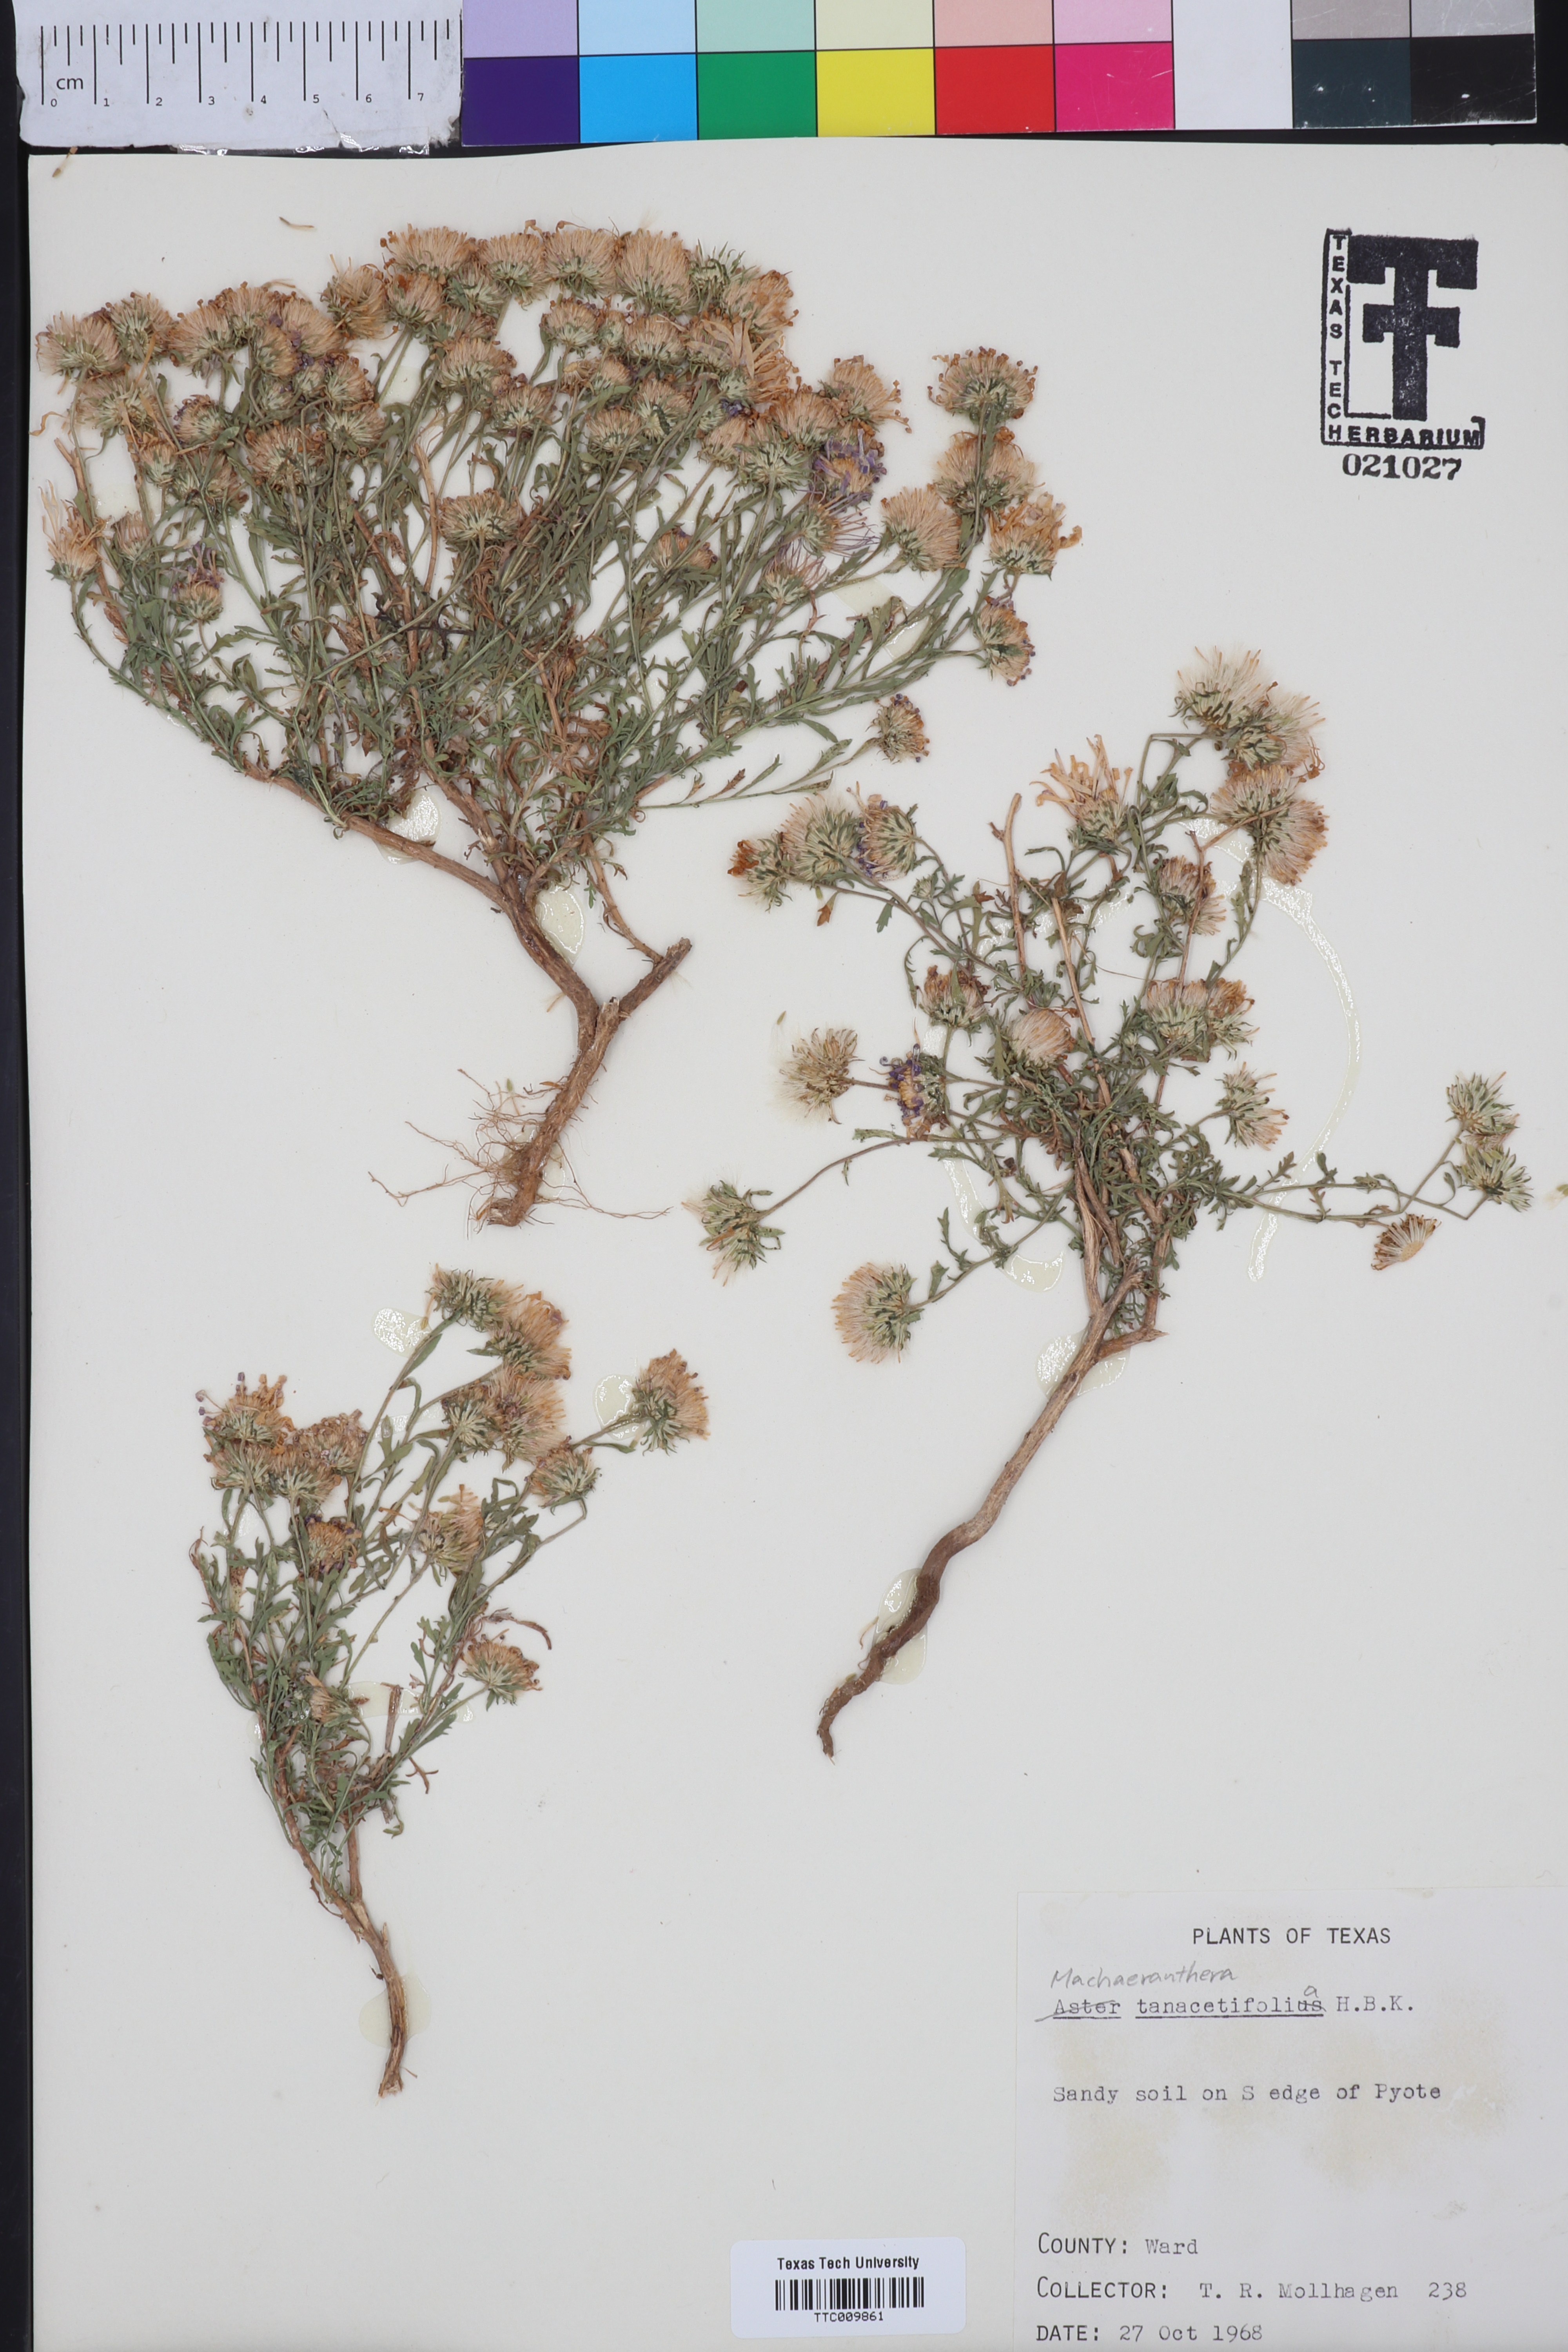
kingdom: Plantae
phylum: Tracheophyta
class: Magnoliopsida
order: Asterales
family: Asteraceae
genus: Machaeranthera
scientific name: Machaeranthera tanacetifolia
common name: Tansy-aster
